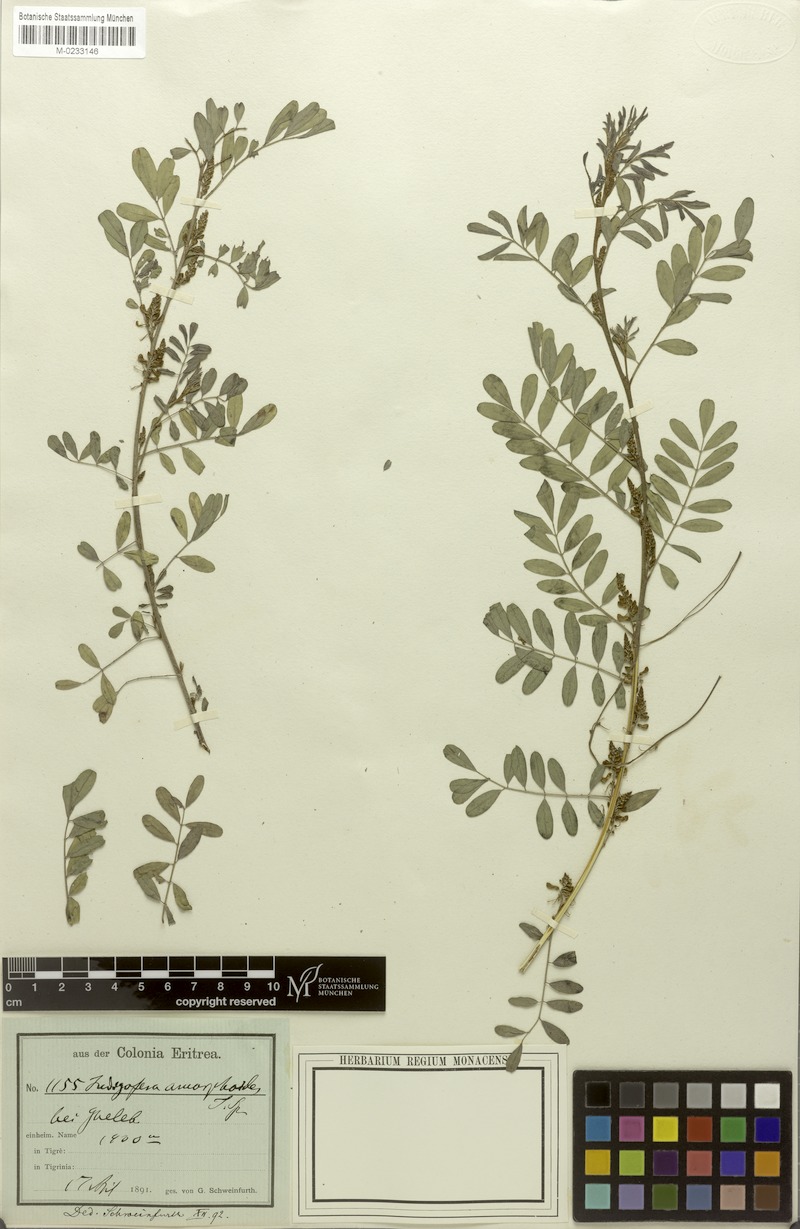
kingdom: Plantae
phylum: Tracheophyta
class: Magnoliopsida
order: Fabales
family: Fabaceae
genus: Indigofera
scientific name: Indigofera amorphoides
